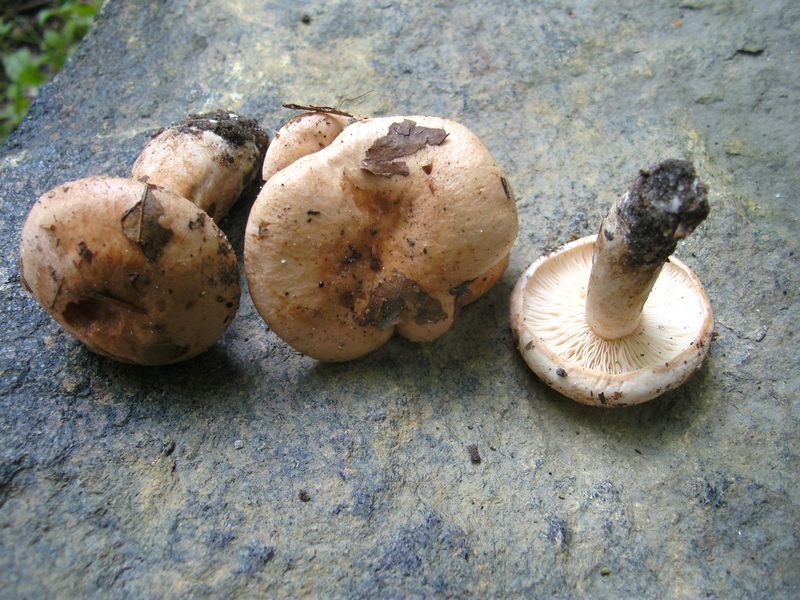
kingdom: Fungi
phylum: Basidiomycota
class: Agaricomycetes
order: Russulales
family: Russulaceae
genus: Lactarius
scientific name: Lactarius pallidus
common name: bleg mælkehat
